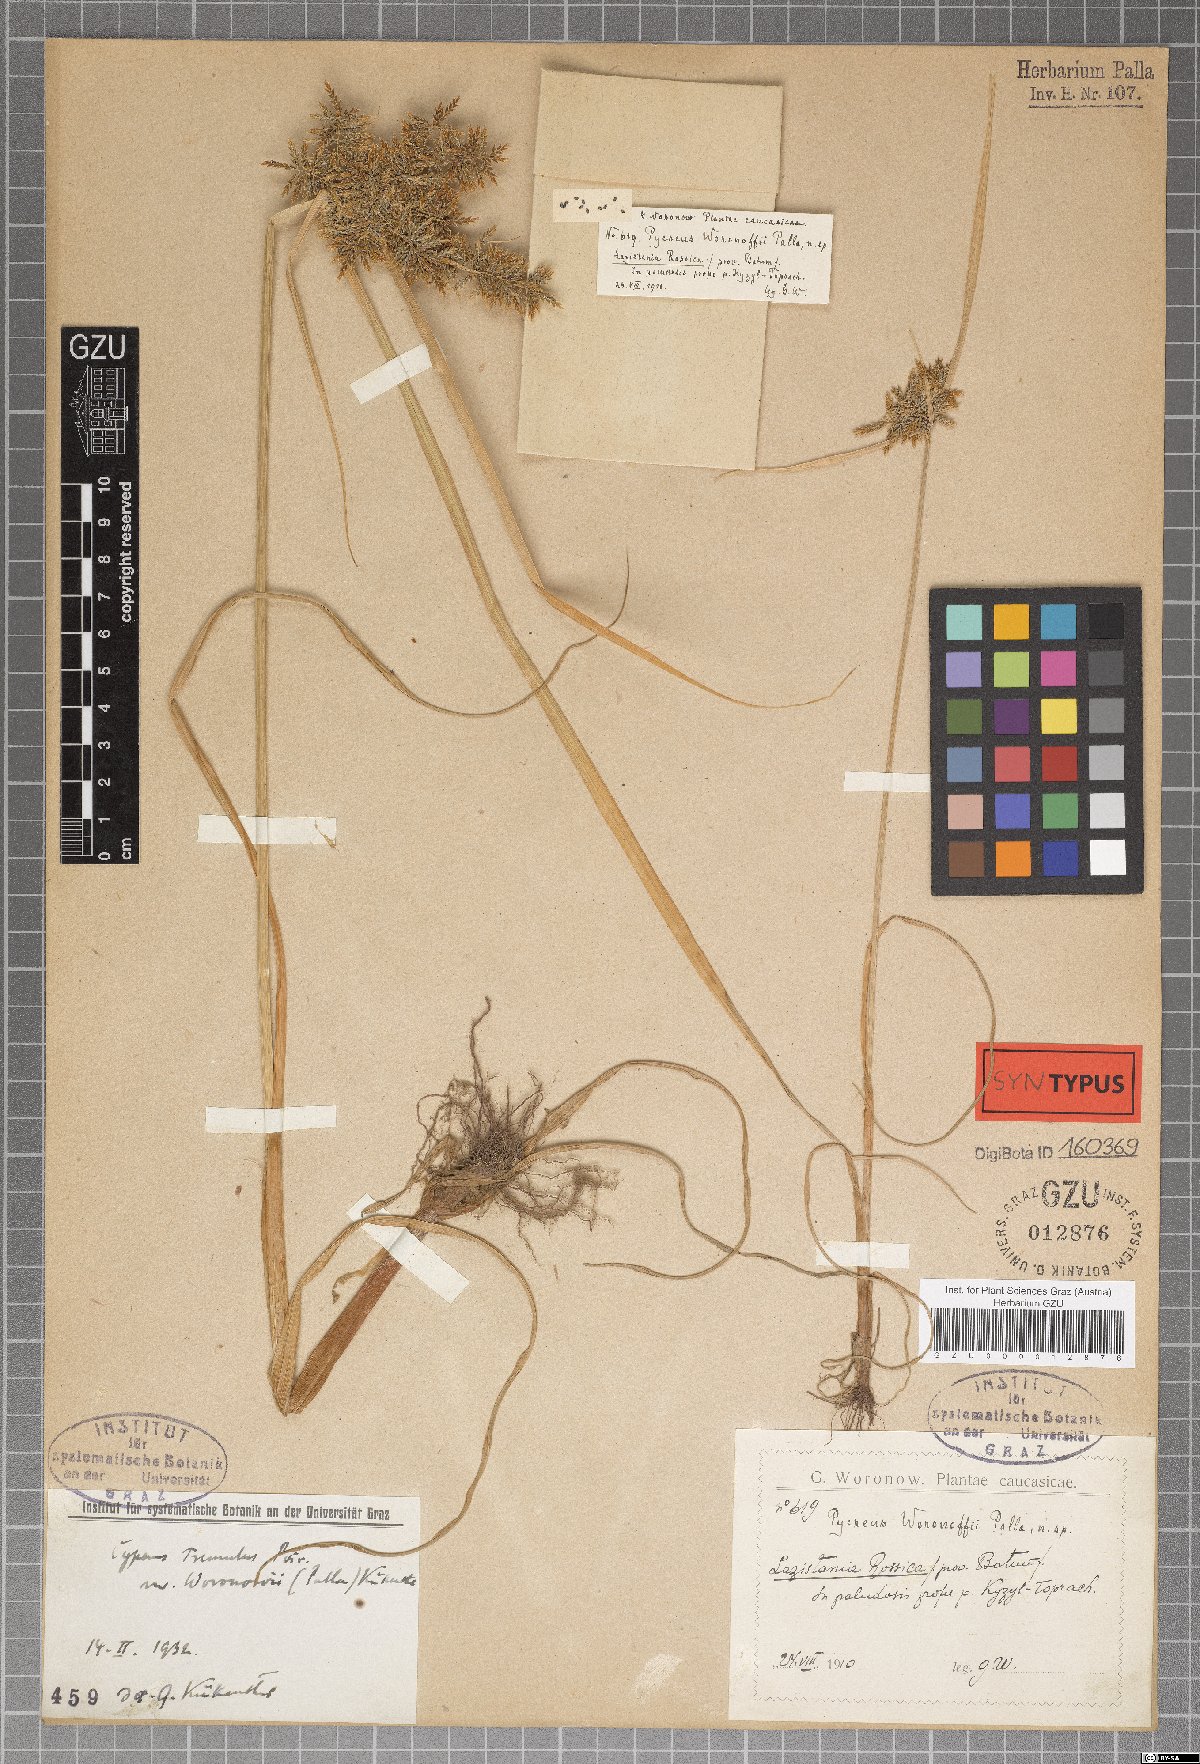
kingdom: Plantae
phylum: Tracheophyta
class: Liliopsida
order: Poales
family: Cyperaceae
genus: Cyperus
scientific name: Cyperus colchicus
